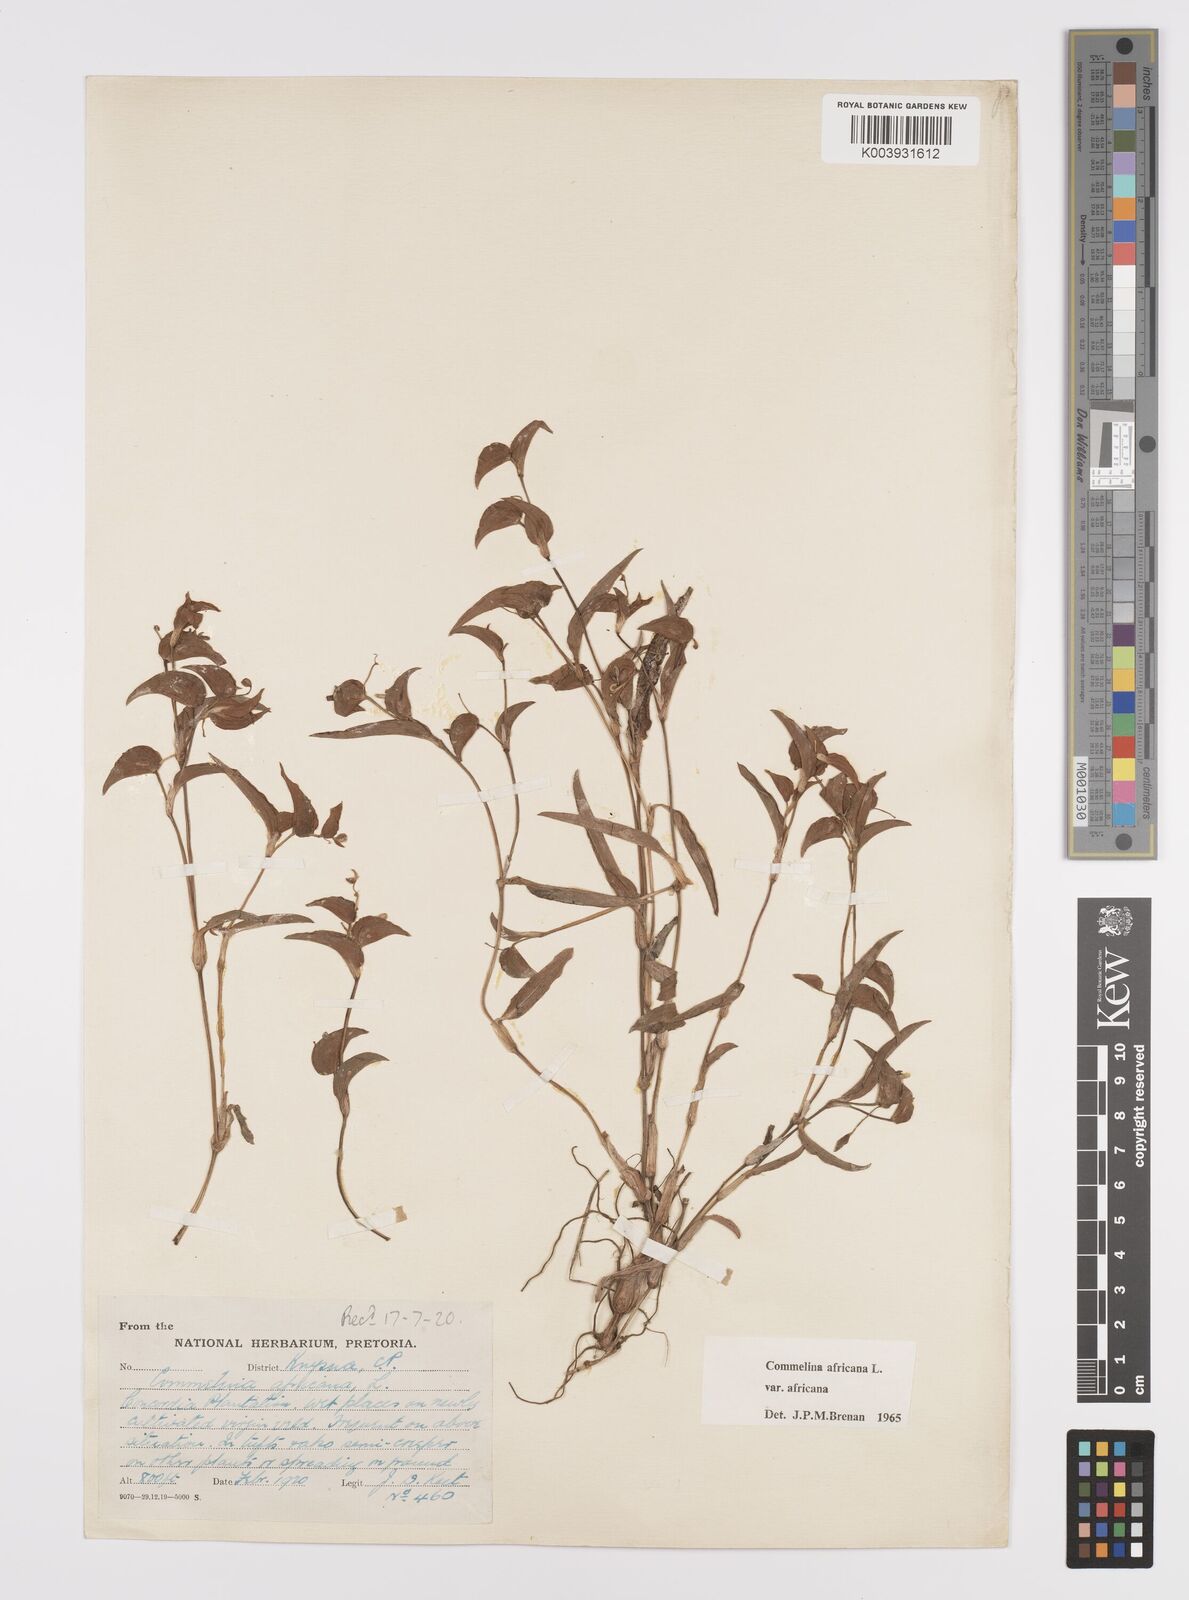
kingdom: Plantae
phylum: Tracheophyta
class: Liliopsida
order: Commelinales
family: Commelinaceae
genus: Commelina
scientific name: Commelina africana
